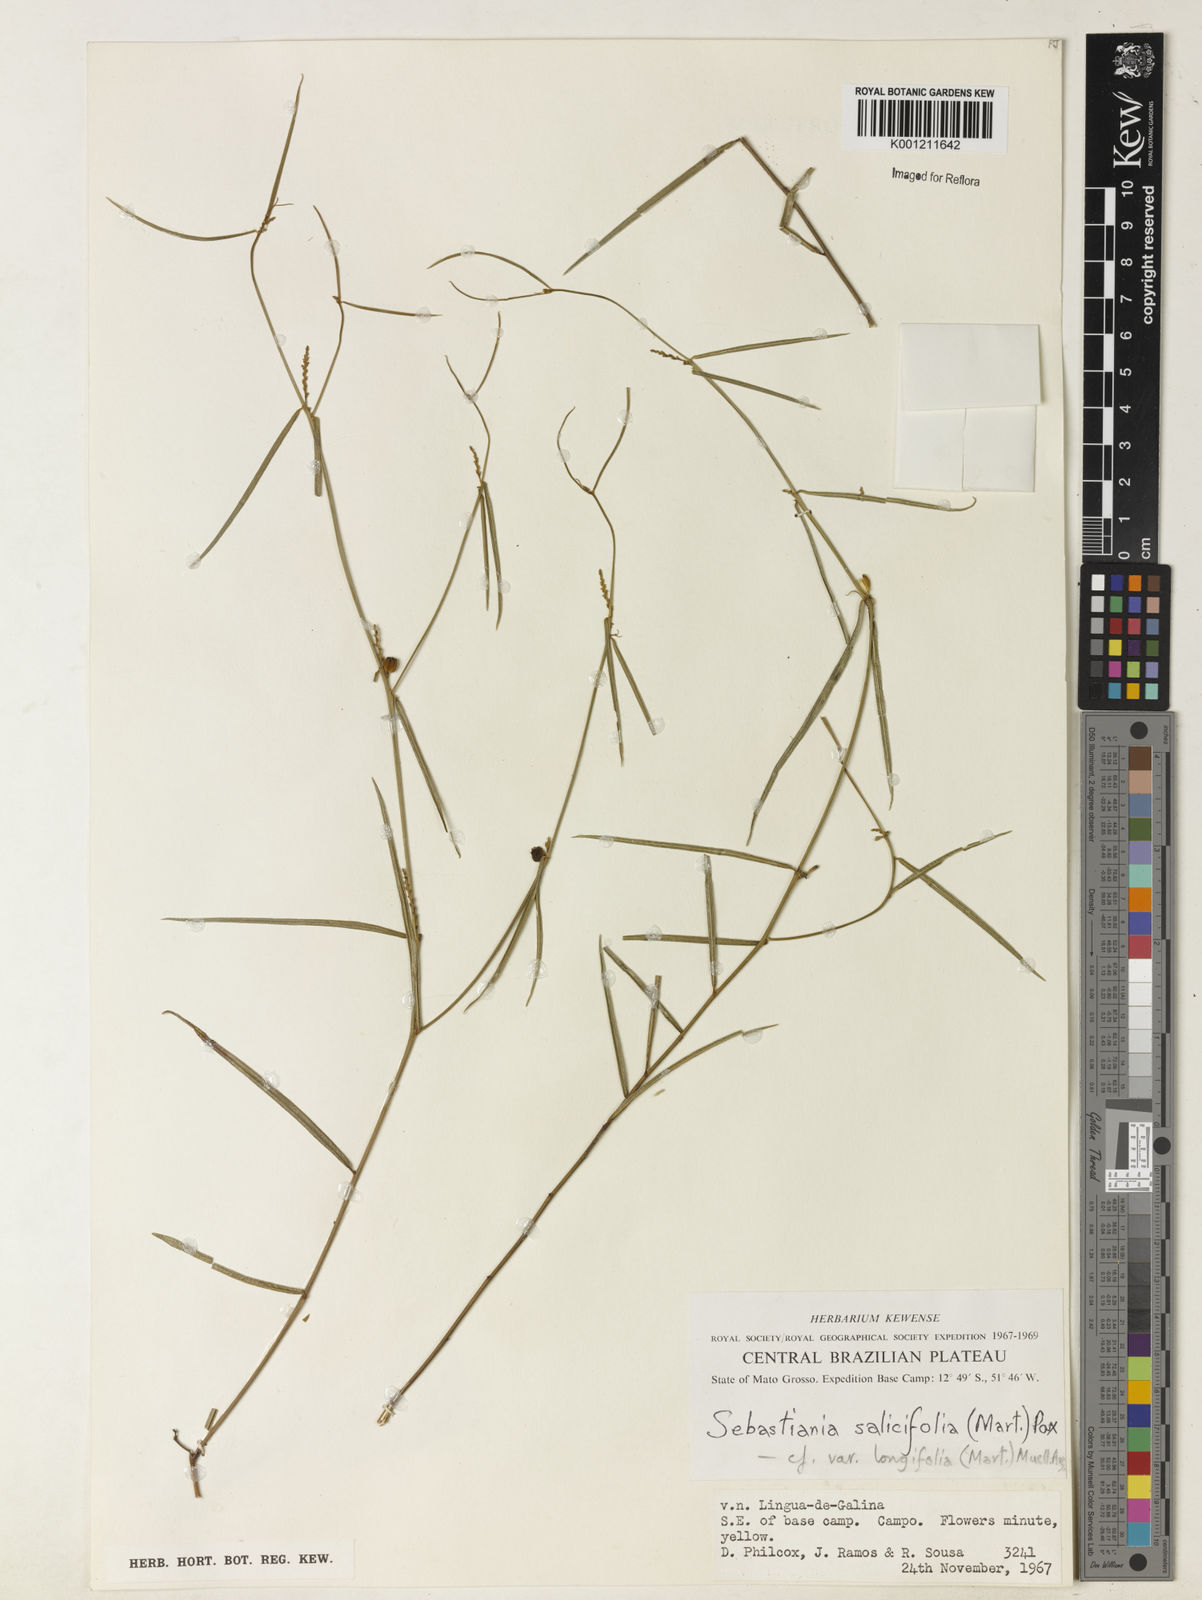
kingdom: Plantae
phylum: Tracheophyta
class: Magnoliopsida
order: Malpighiales
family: Euphorbiaceae
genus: Microstachys
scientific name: Microstachys
